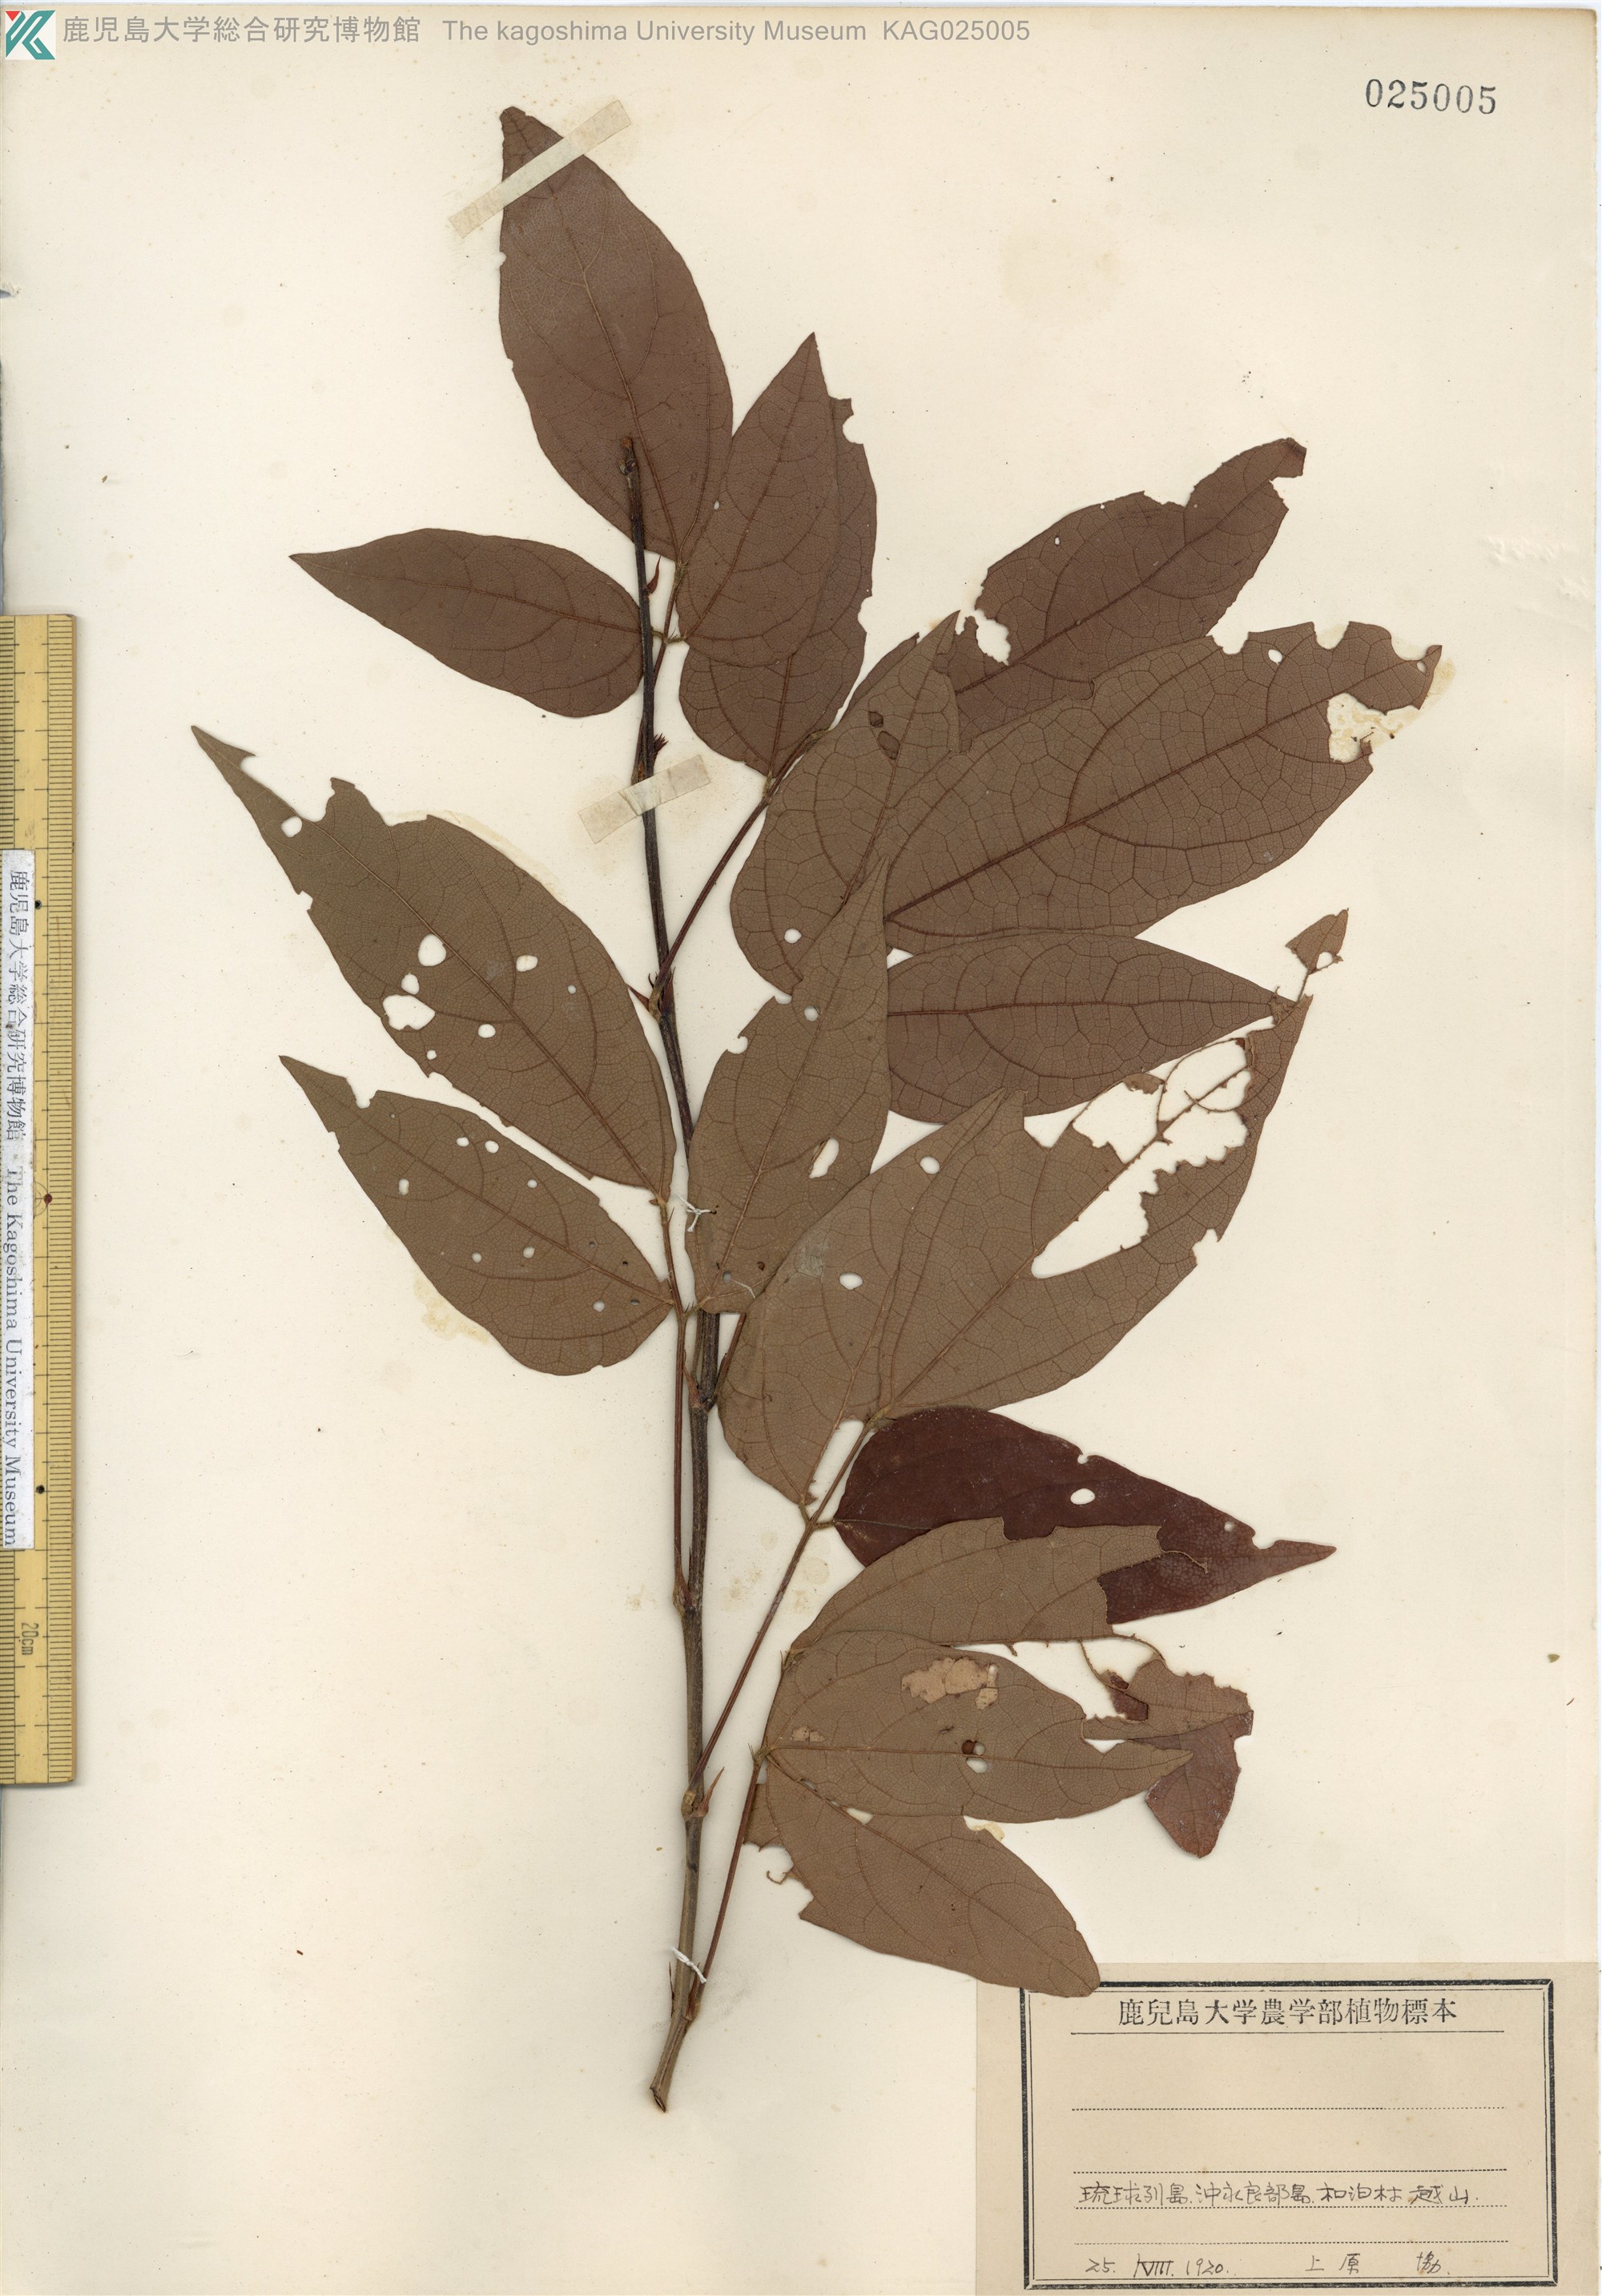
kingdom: Plantae
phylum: Tracheophyta
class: Magnoliopsida
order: Fabales
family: Fabaceae
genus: Hylodesmum
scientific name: Hylodesmum laterale
